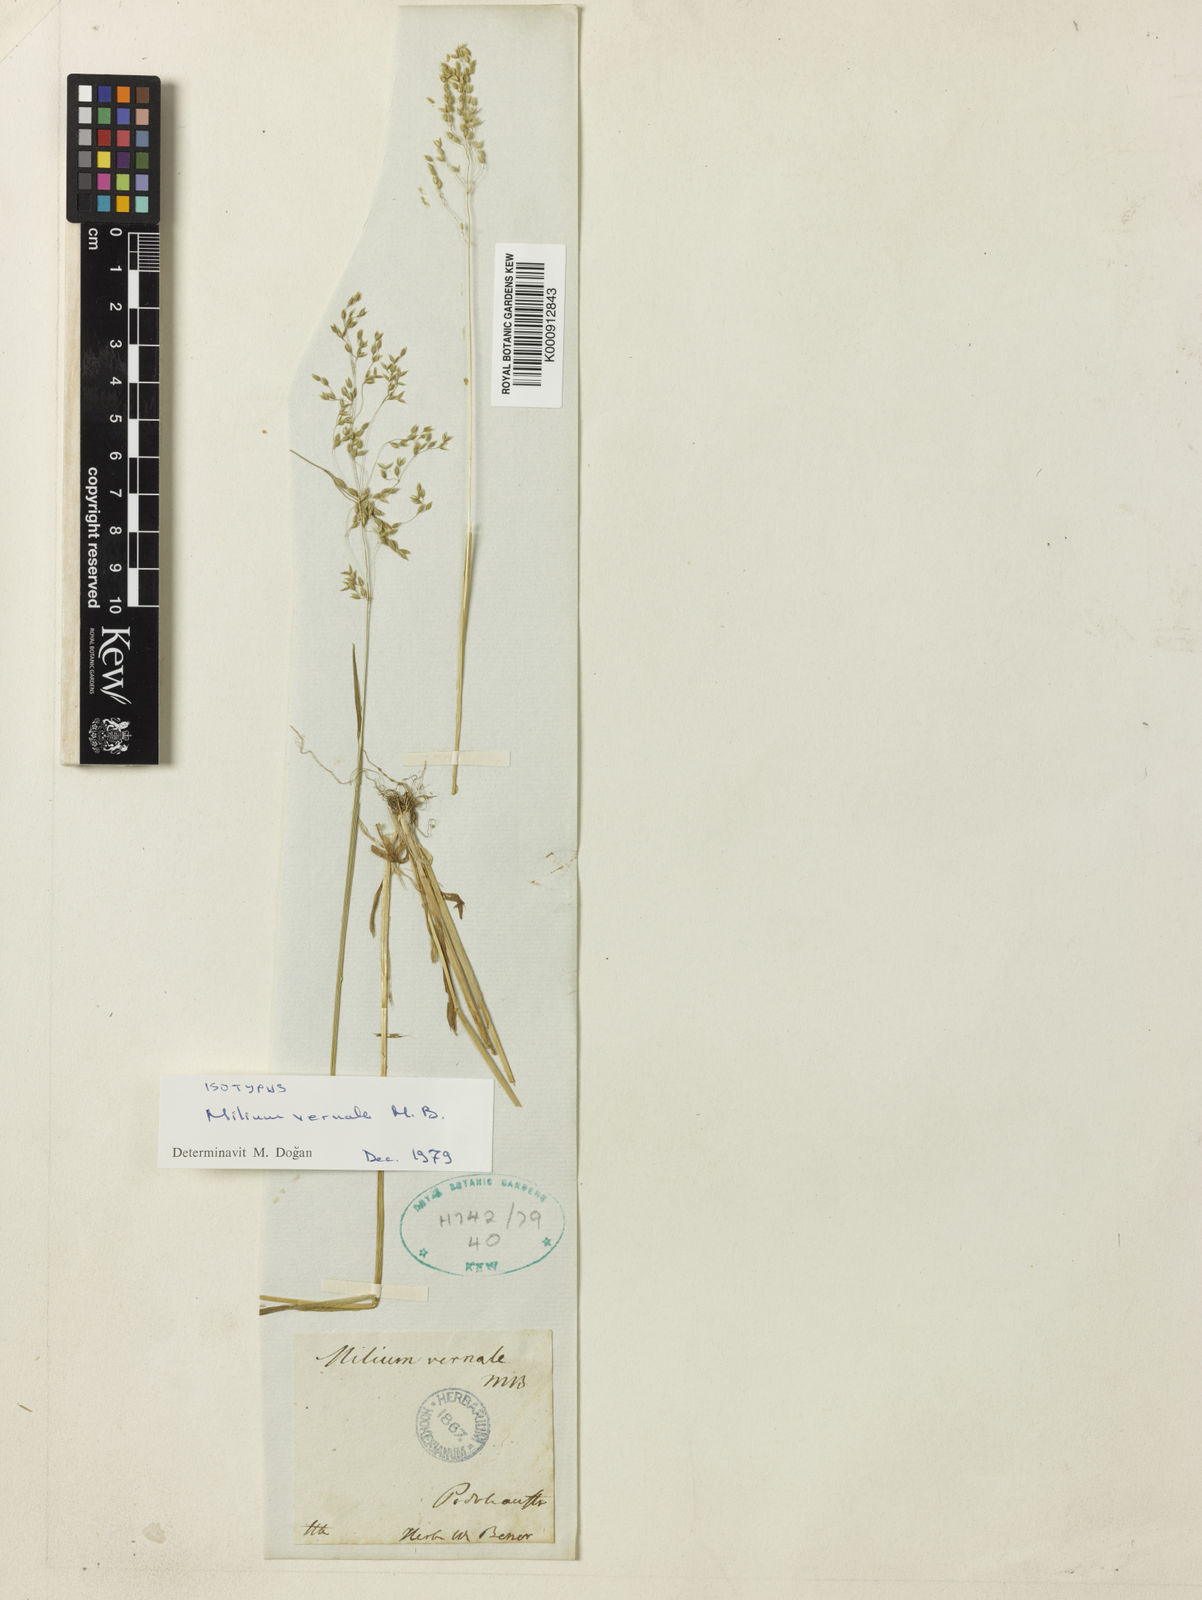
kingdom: Plantae
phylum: Tracheophyta
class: Liliopsida
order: Poales
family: Poaceae
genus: Milium
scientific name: Milium vernale
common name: Early millet
